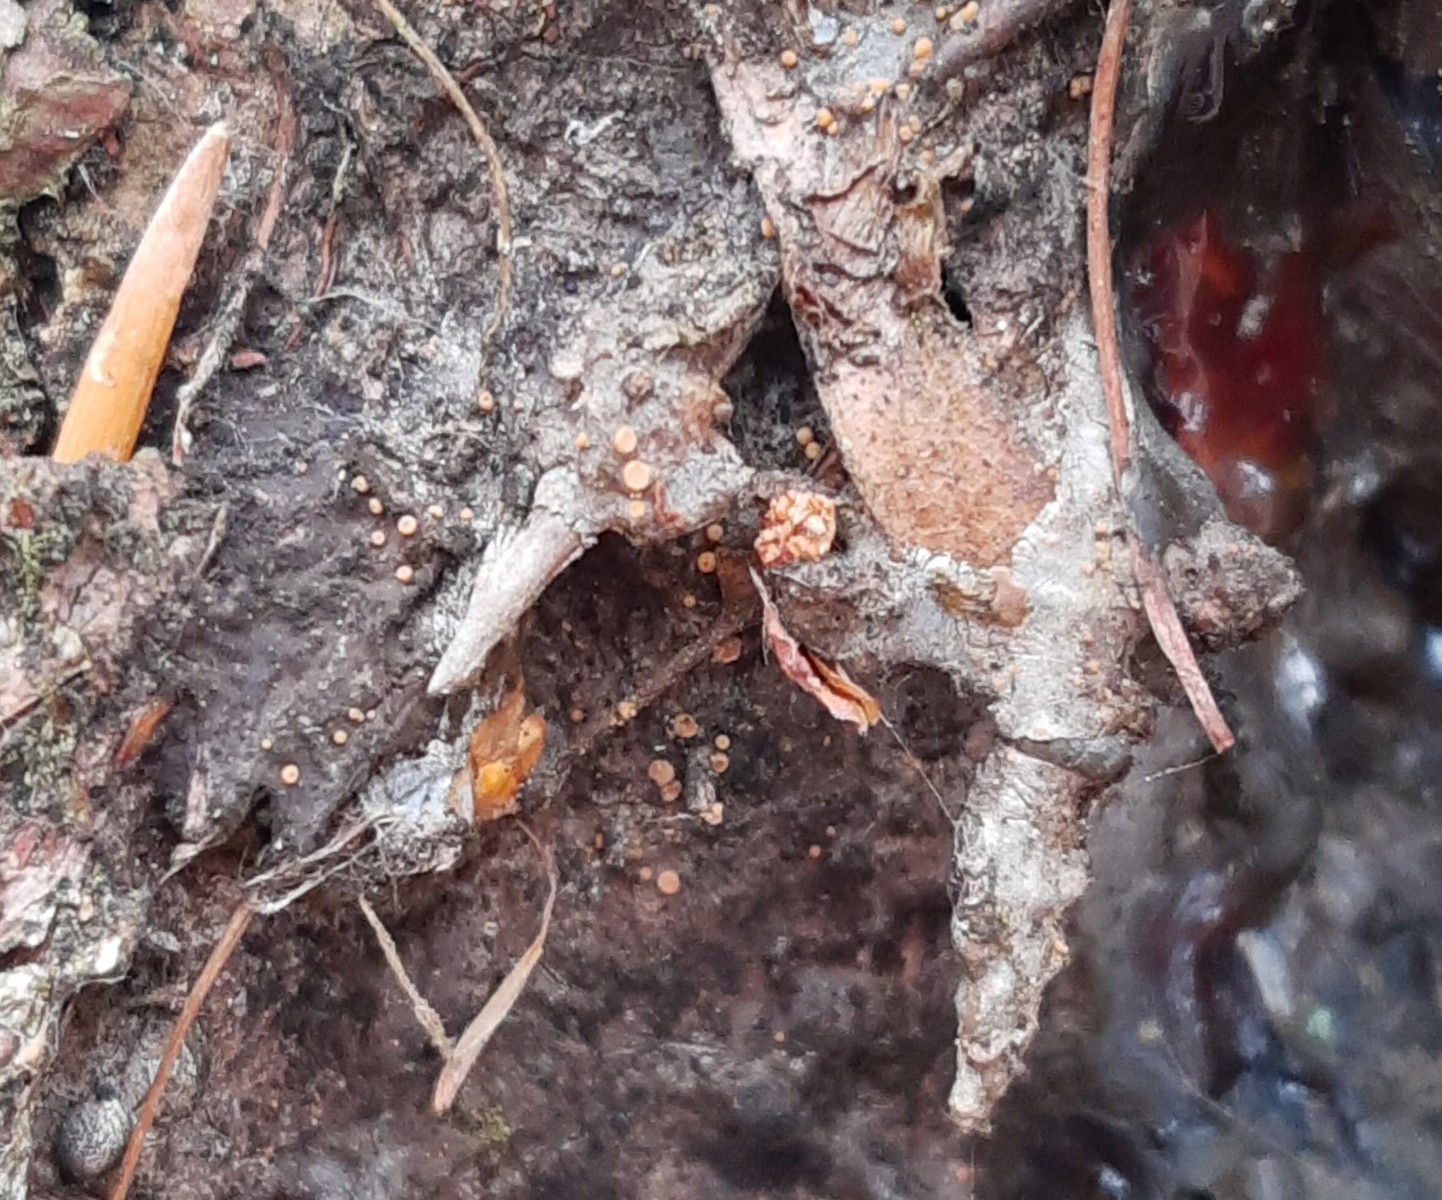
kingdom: Fungi
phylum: Ascomycota
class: Sareomycetes
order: Sareales
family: Sareaceae
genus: Sarea
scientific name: Sarea resinae
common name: orangegul harpiksskive
